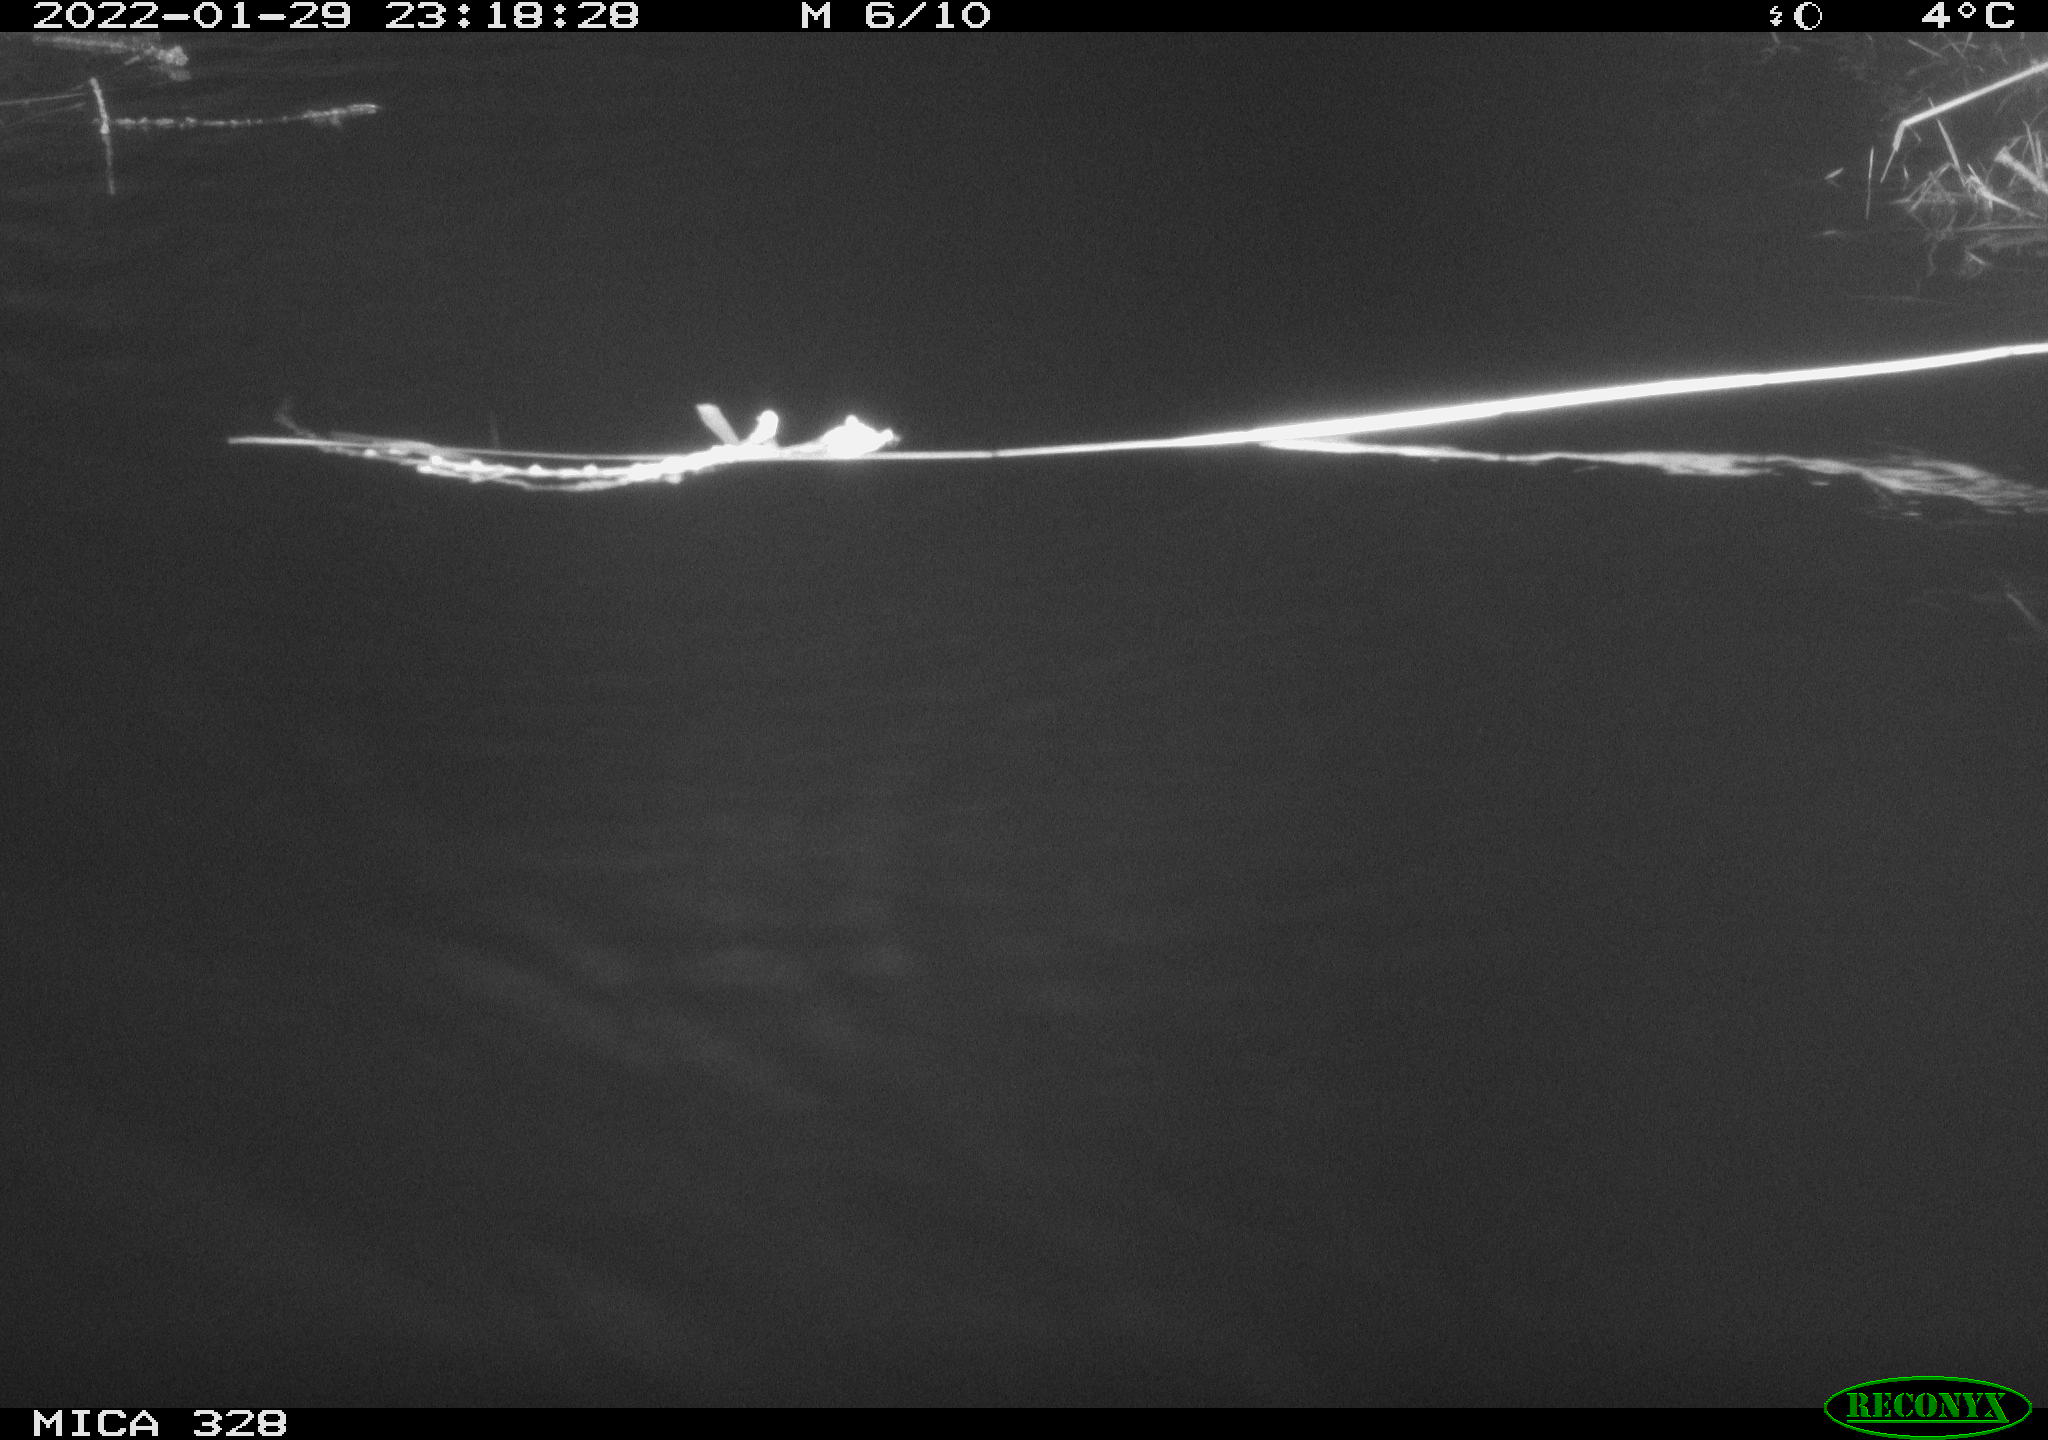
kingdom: Animalia
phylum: Chordata
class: Mammalia
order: Rodentia
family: Cricetidae
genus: Ondatra
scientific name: Ondatra zibethicus
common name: Muskrat
